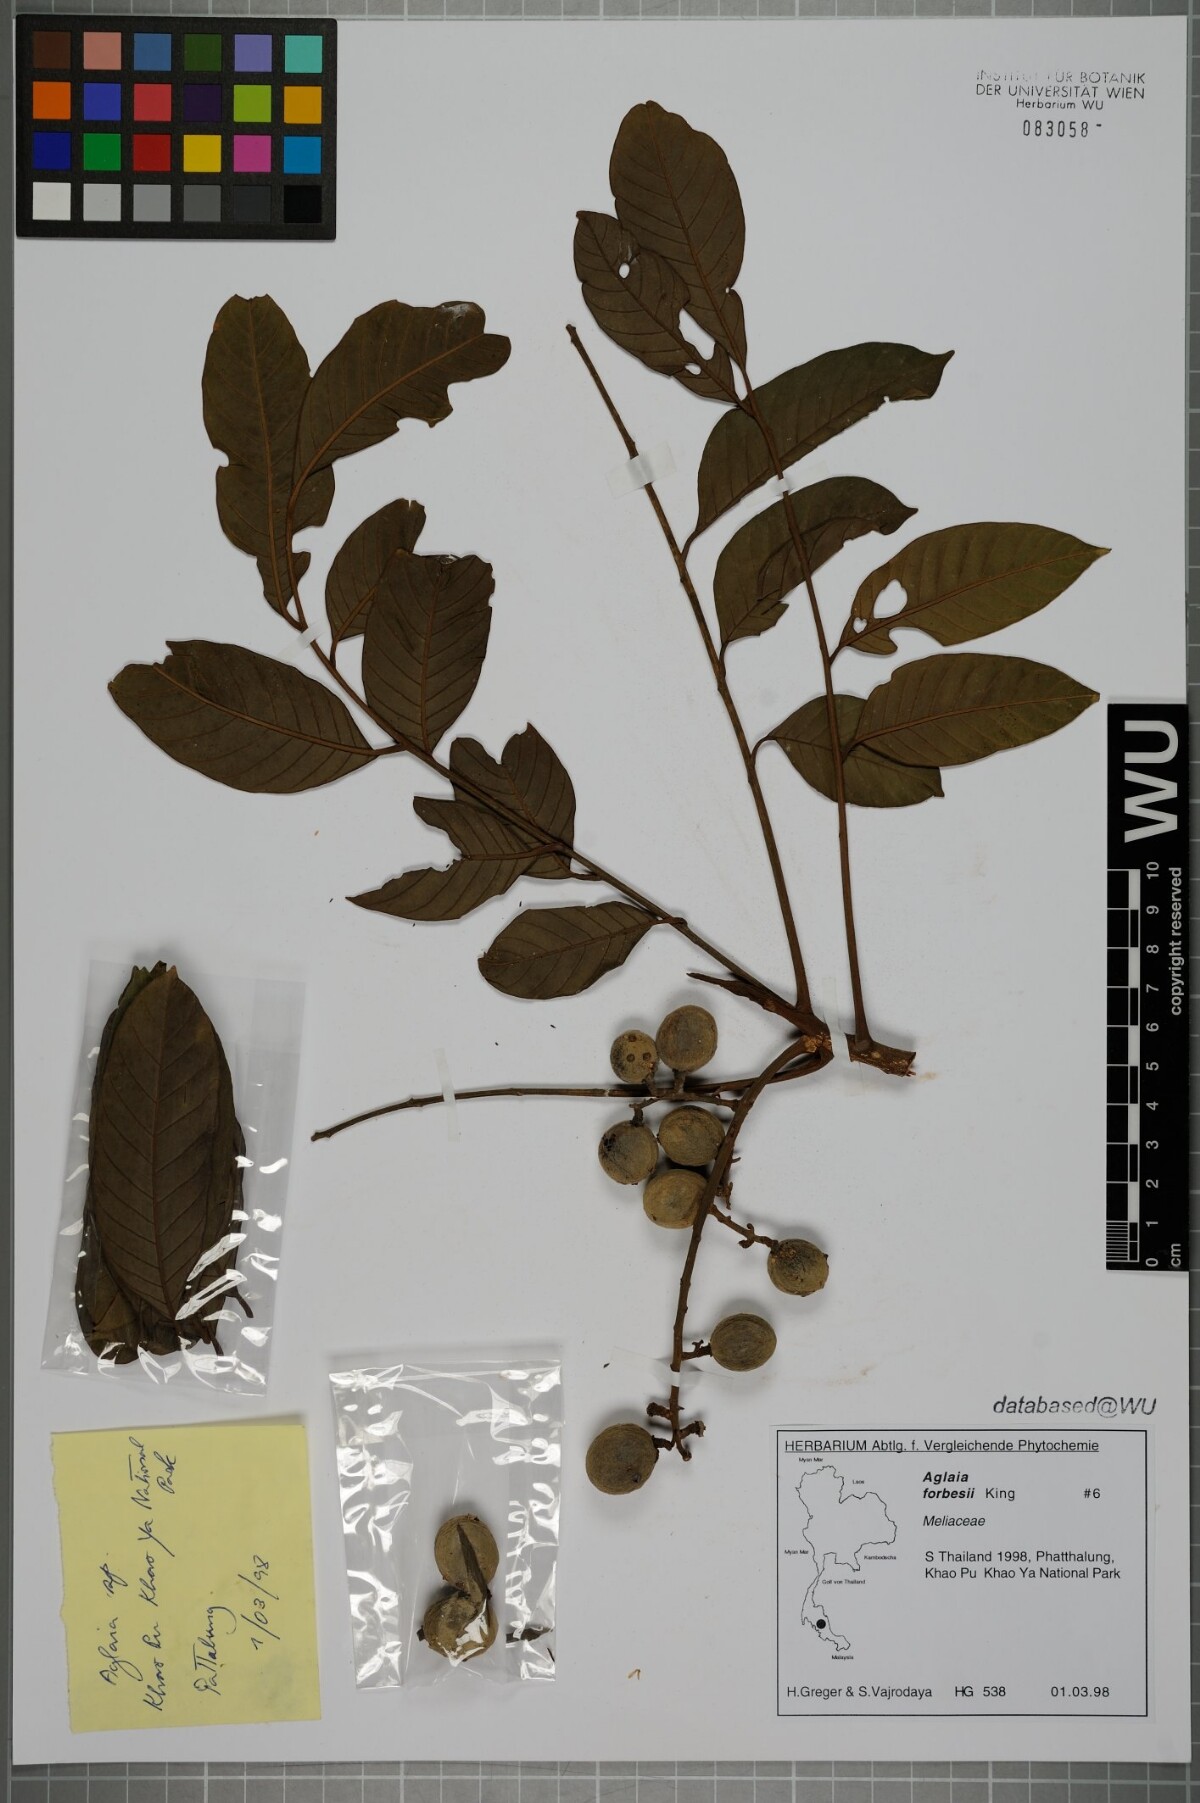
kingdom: Plantae
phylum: Tracheophyta
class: Magnoliopsida
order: Sapindales
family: Meliaceae
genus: Aglaia
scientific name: Aglaia forbesii
